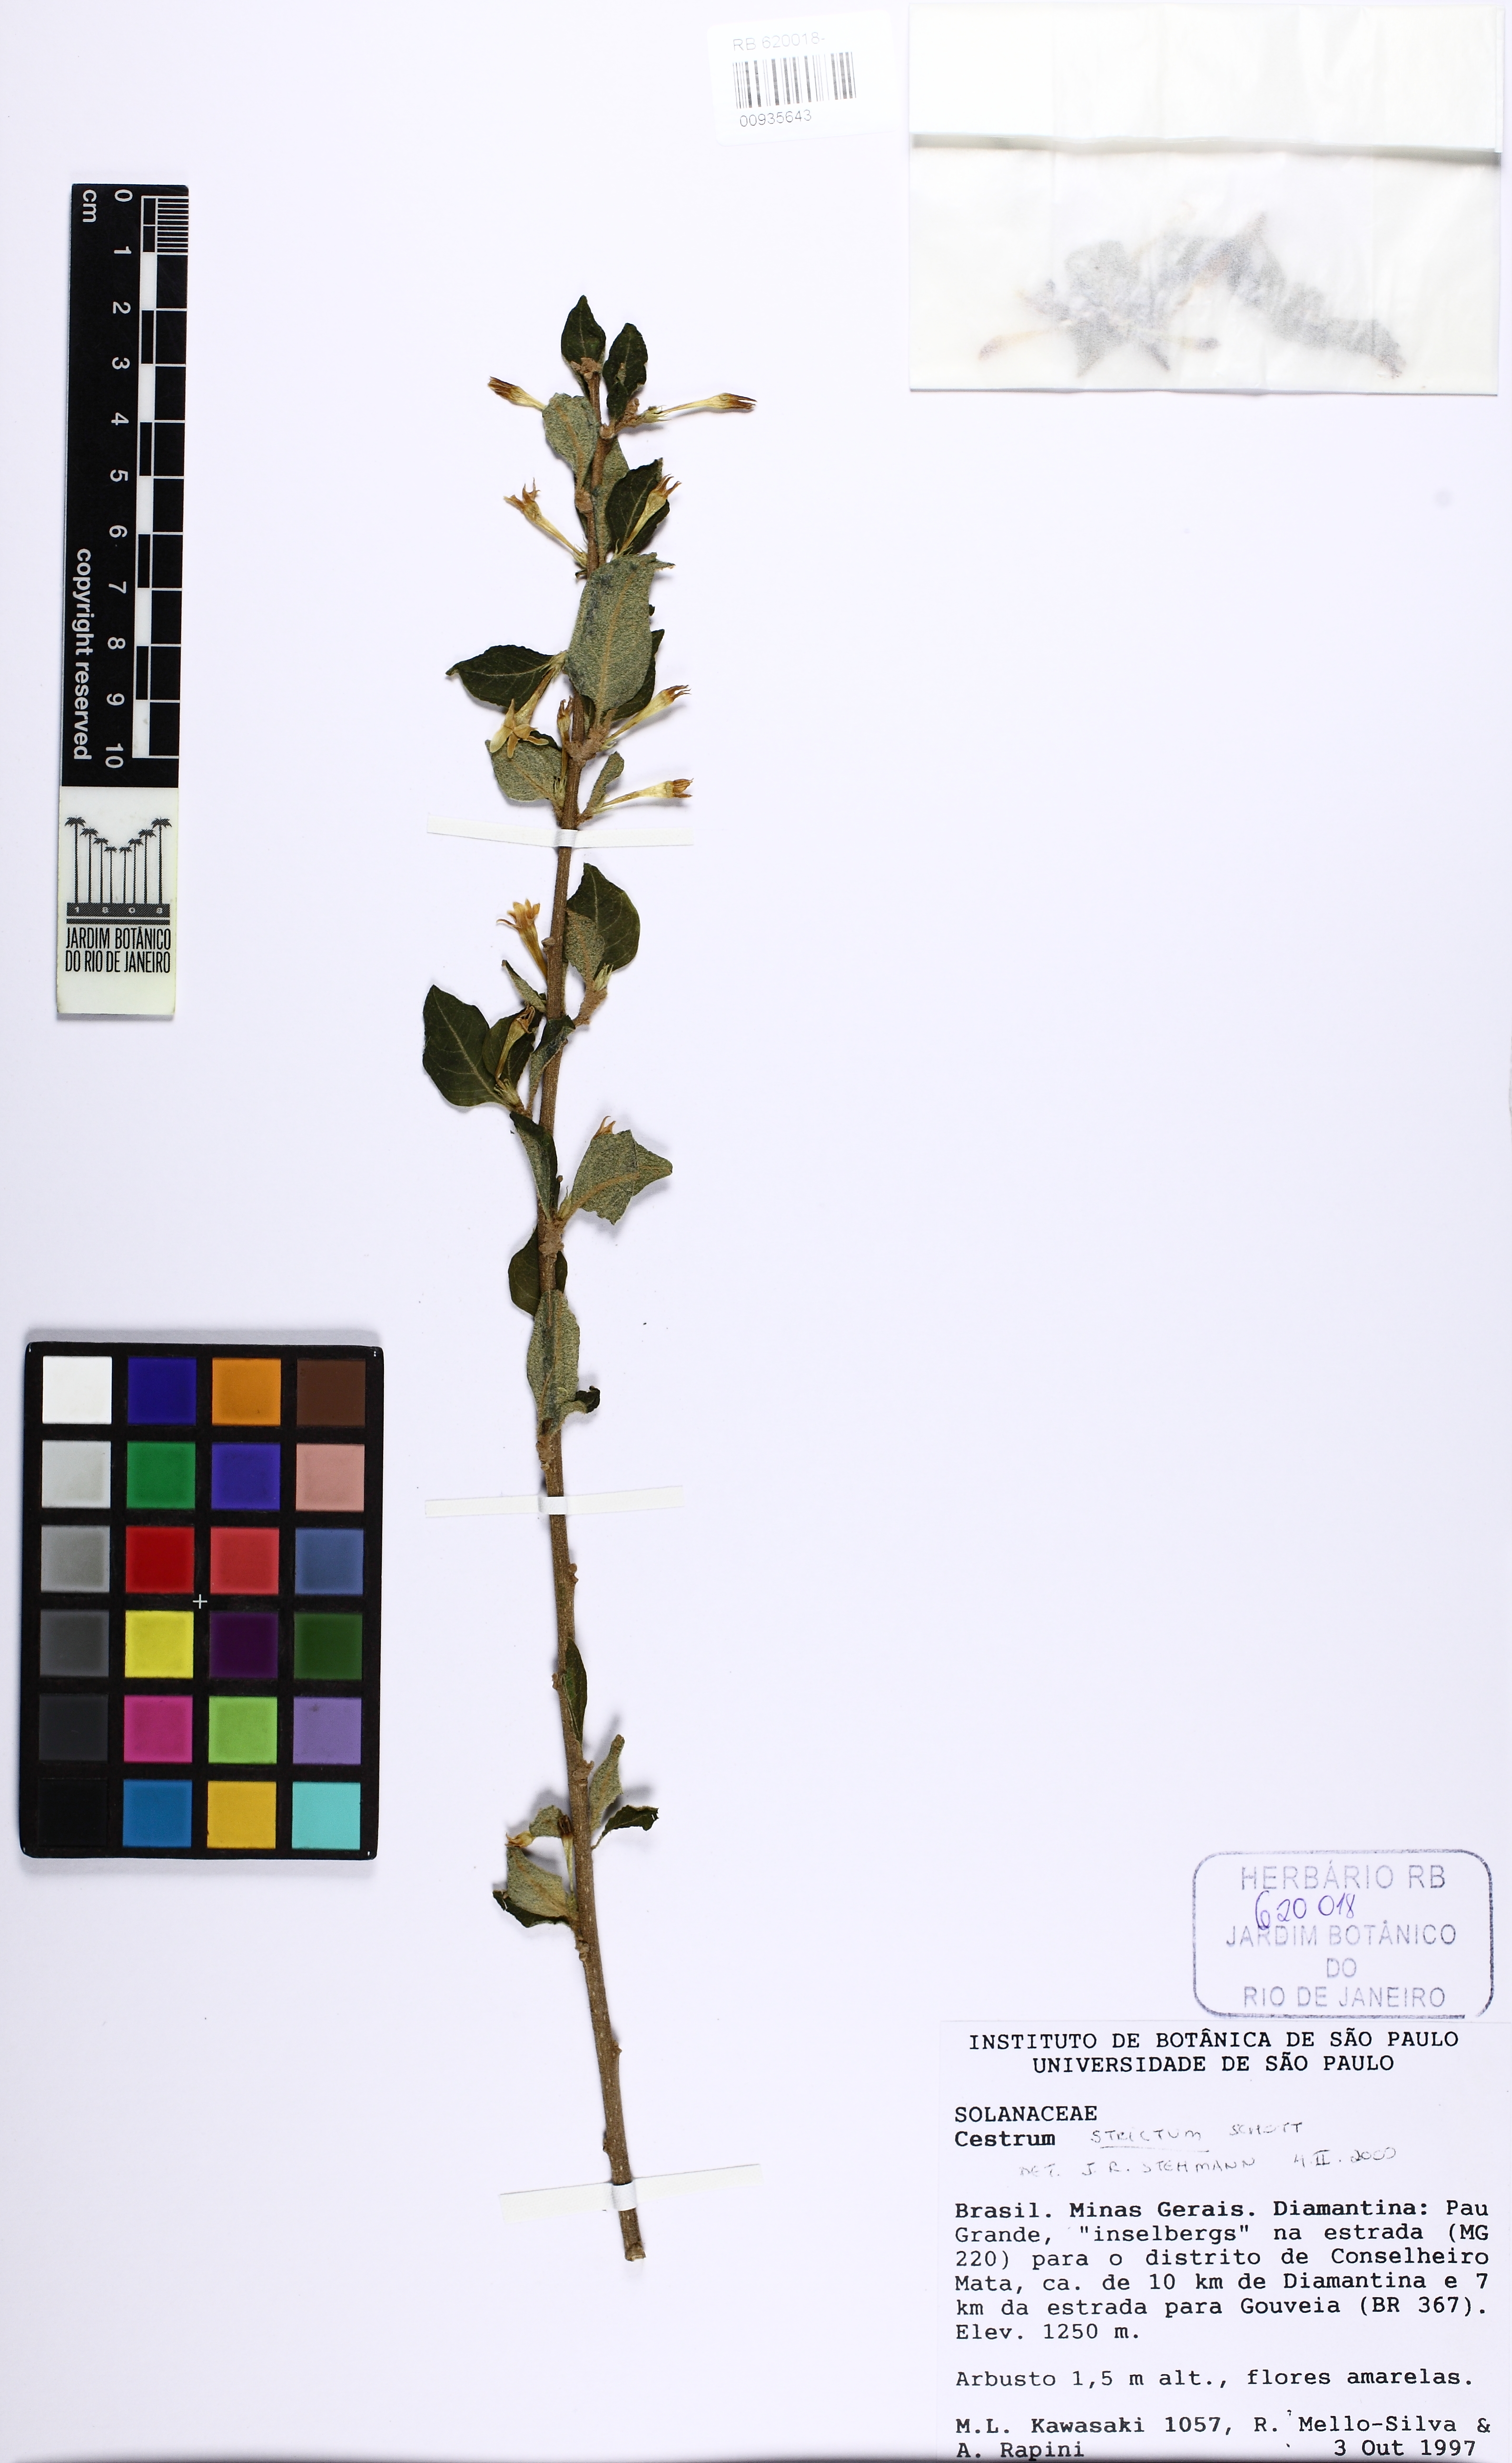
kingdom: Plantae
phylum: Tracheophyta
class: Magnoliopsida
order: Solanales
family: Solanaceae
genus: Cestrum
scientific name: Cestrum strictum
